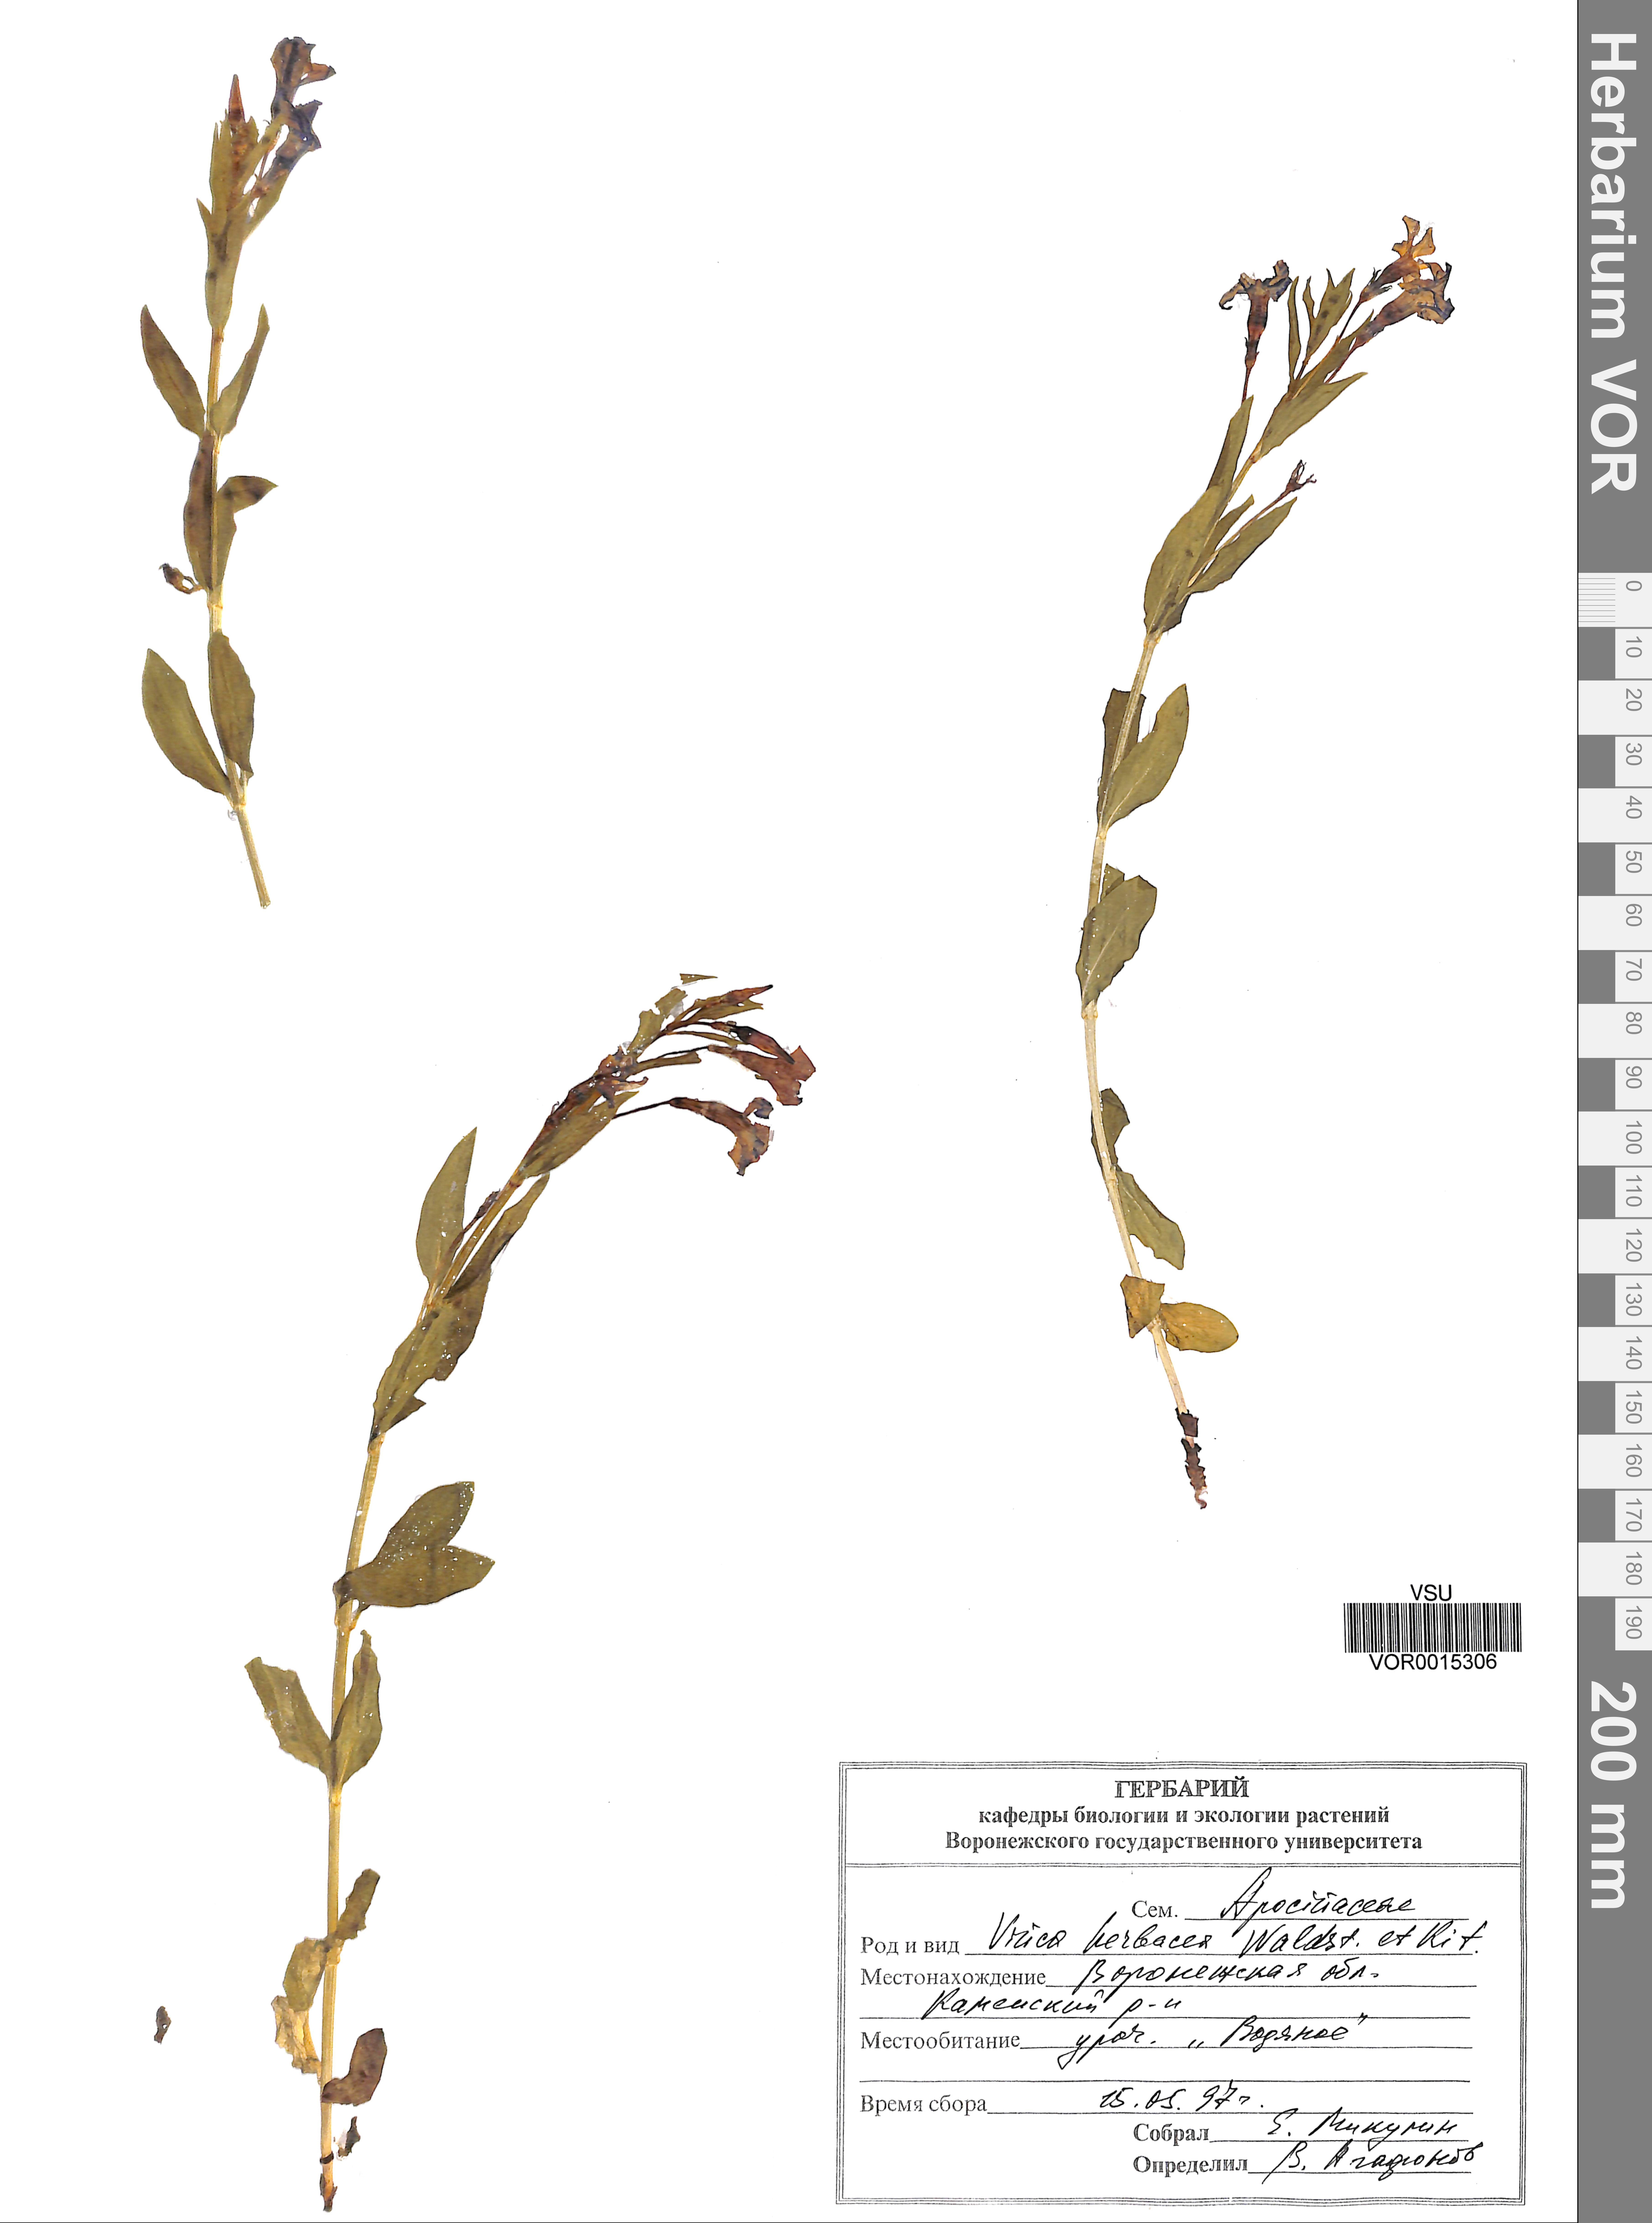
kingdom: Plantae
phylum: Tracheophyta
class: Magnoliopsida
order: Gentianales
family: Apocynaceae
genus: Vinca
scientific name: Vinca herbacea
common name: Herbaceous periwinkle
